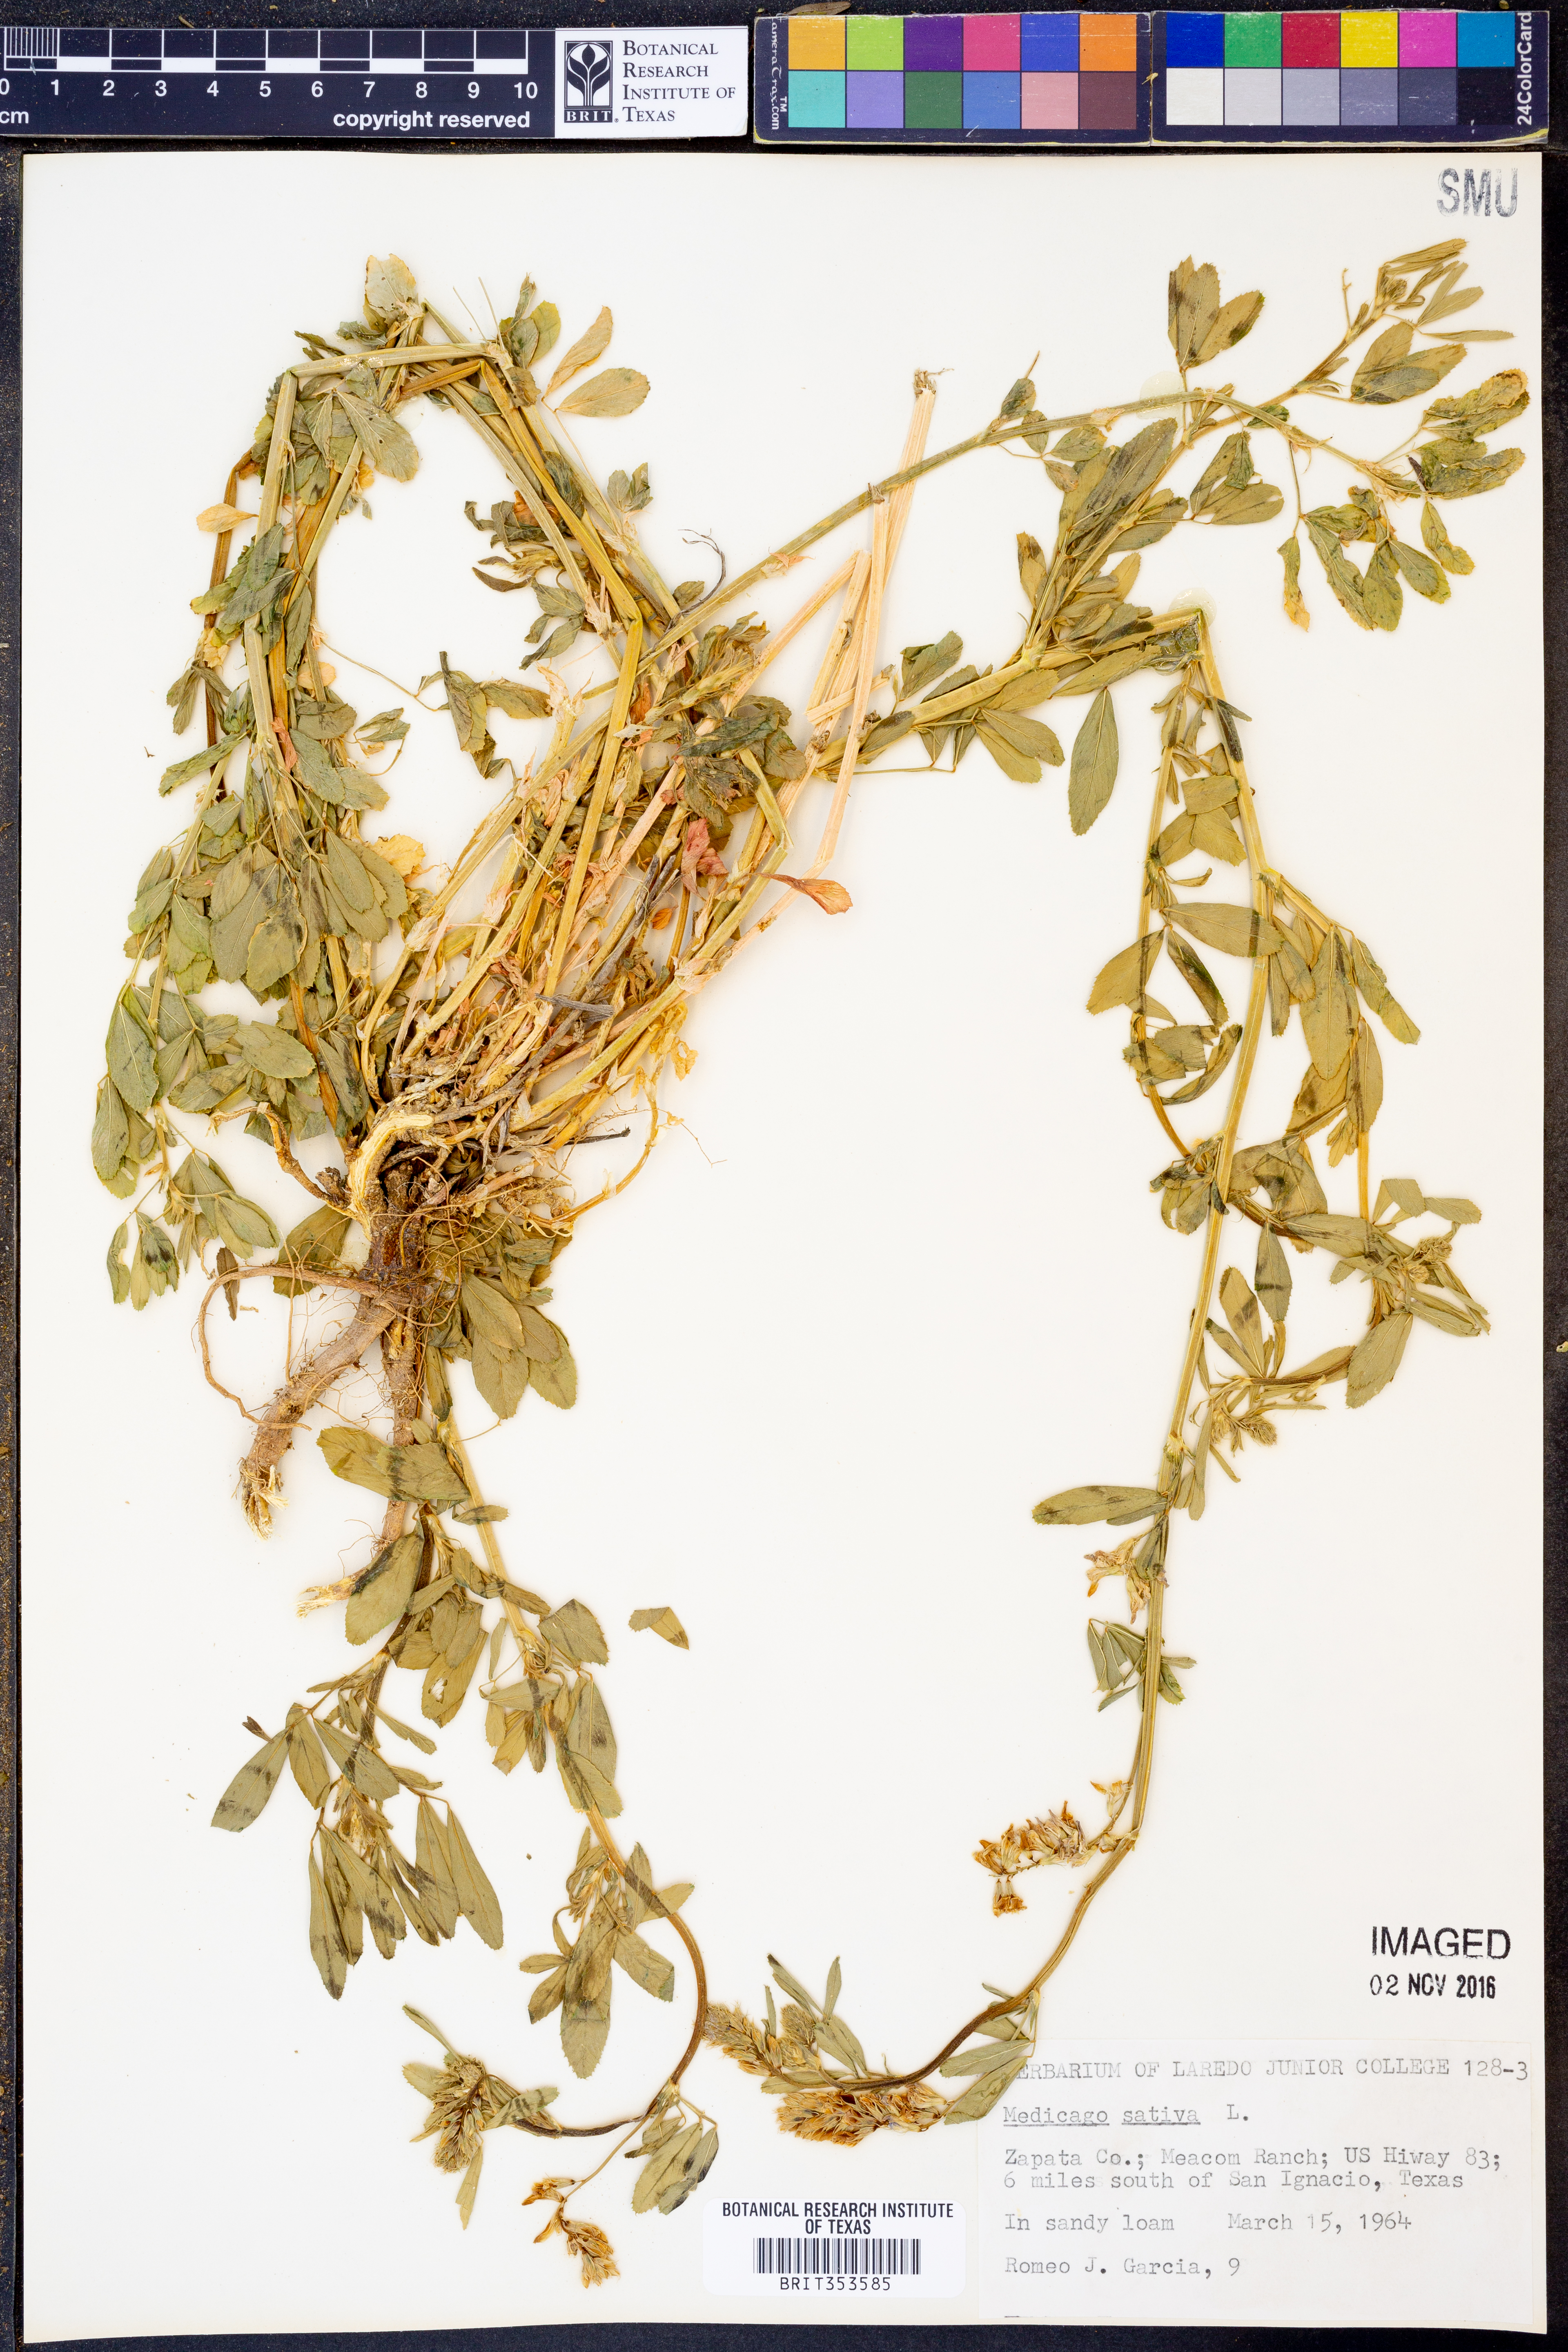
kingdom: Plantae
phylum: Tracheophyta
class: Magnoliopsida
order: Fabales
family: Fabaceae
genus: Medicago
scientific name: Medicago sativa
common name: Alfalfa
